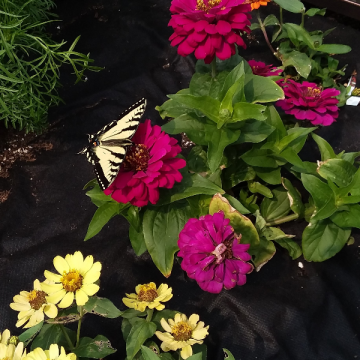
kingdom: Animalia
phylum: Arthropoda
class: Insecta
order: Lepidoptera
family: Papilionidae
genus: Pterourus
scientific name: Pterourus glaucus
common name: Eastern Tiger Swallowtail
